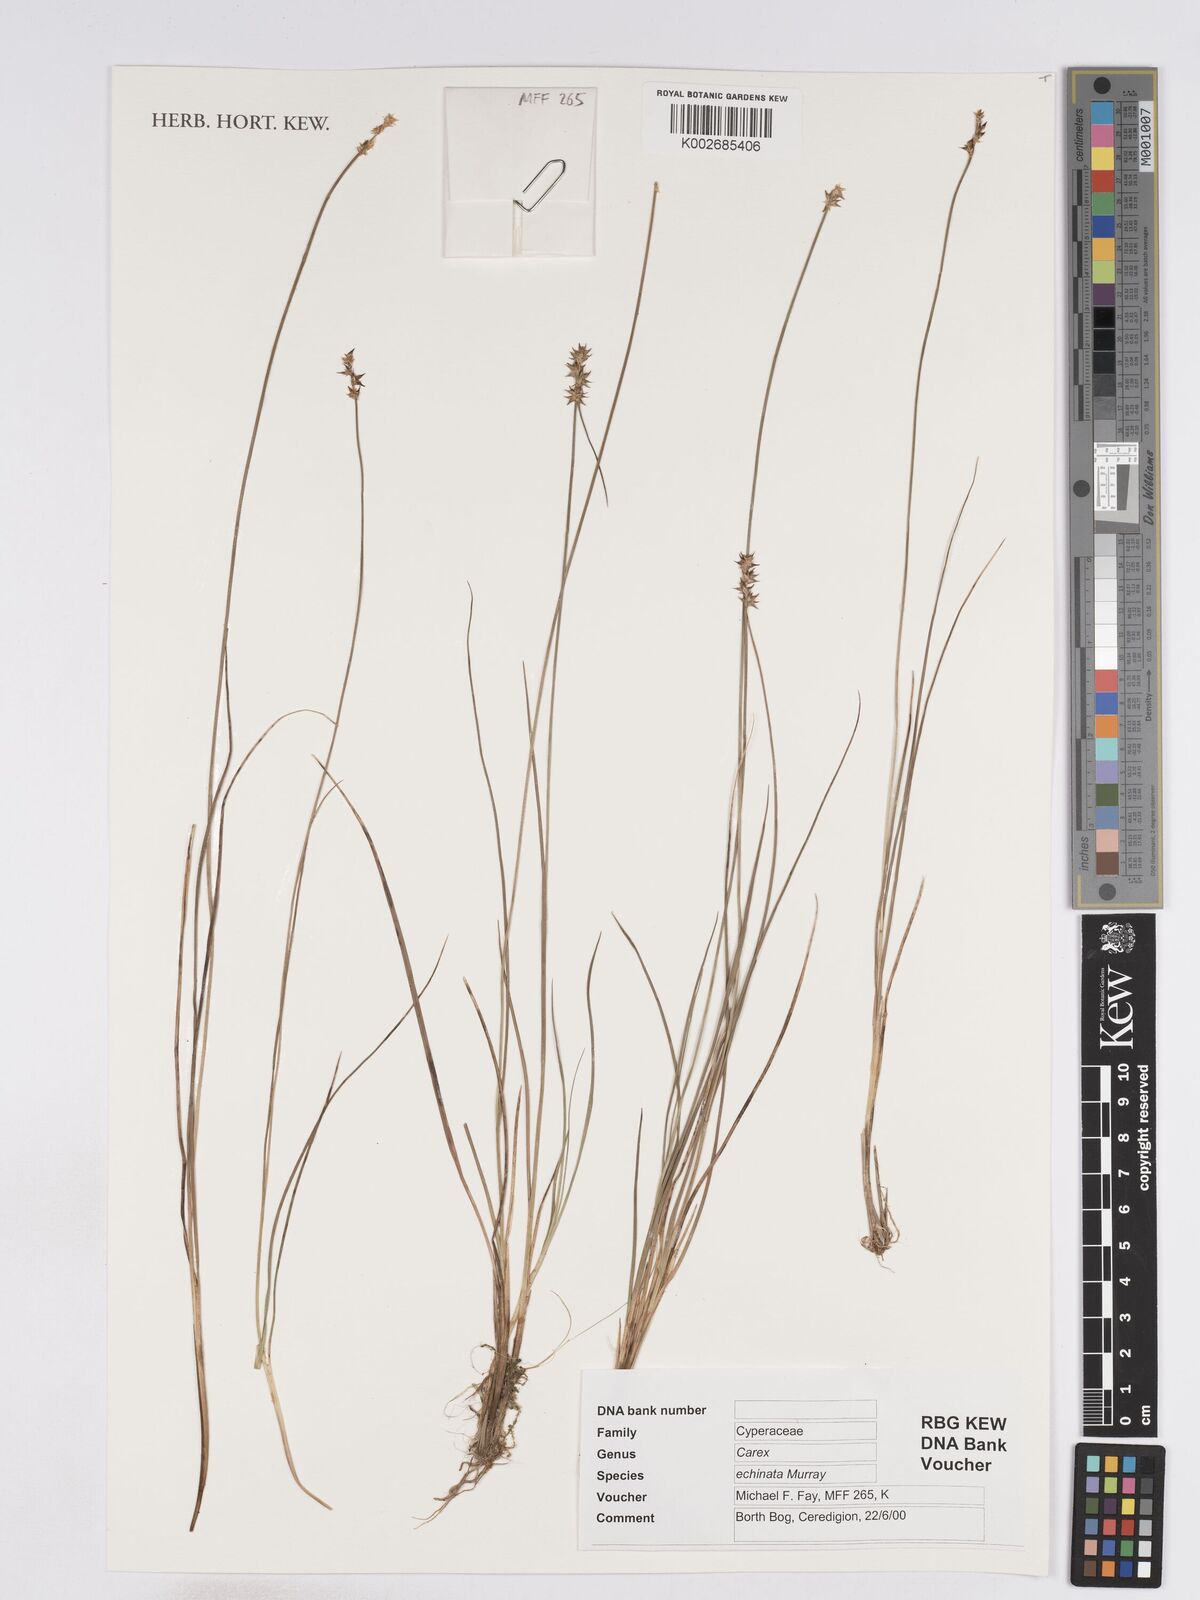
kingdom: Plantae
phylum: Tracheophyta
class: Liliopsida
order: Poales
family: Cyperaceae
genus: Carex
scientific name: Carex echinata
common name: Star sedge
